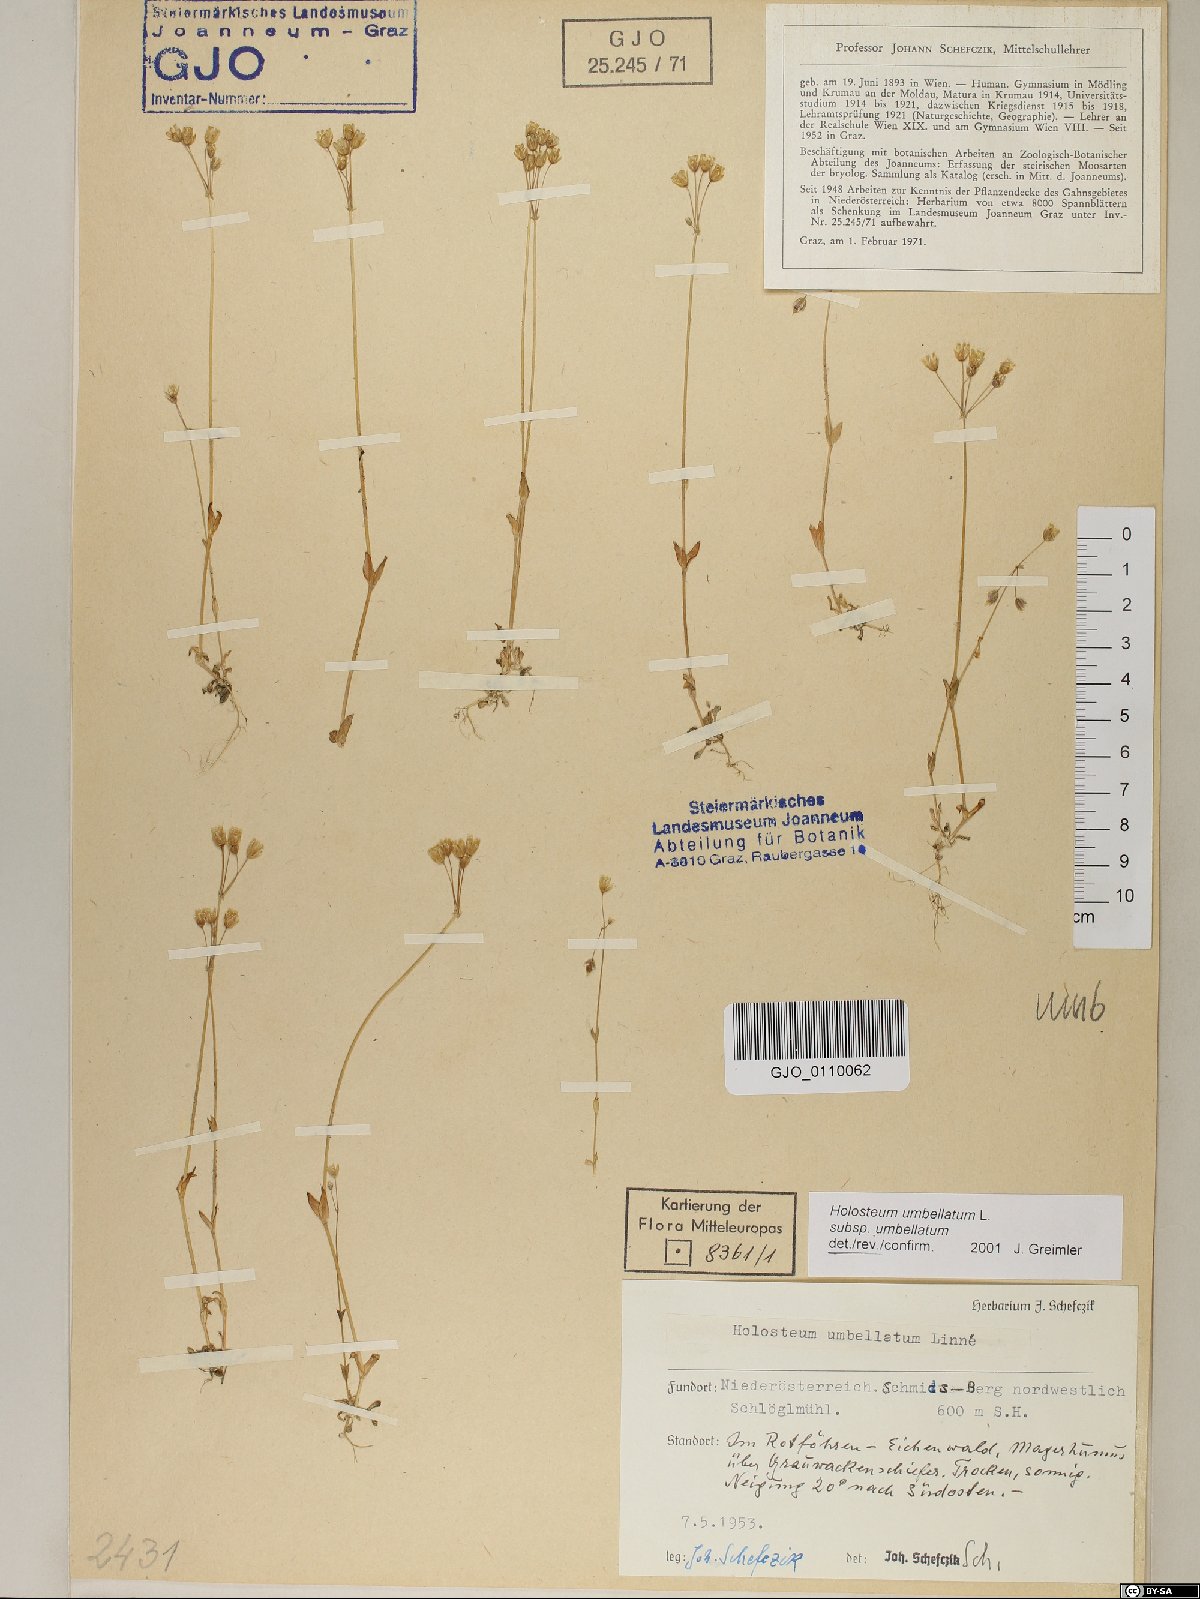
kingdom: Plantae
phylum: Tracheophyta
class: Magnoliopsida
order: Caryophyllales
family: Caryophyllaceae
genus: Holosteum
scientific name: Holosteum umbellatum
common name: Jagged chickweed
